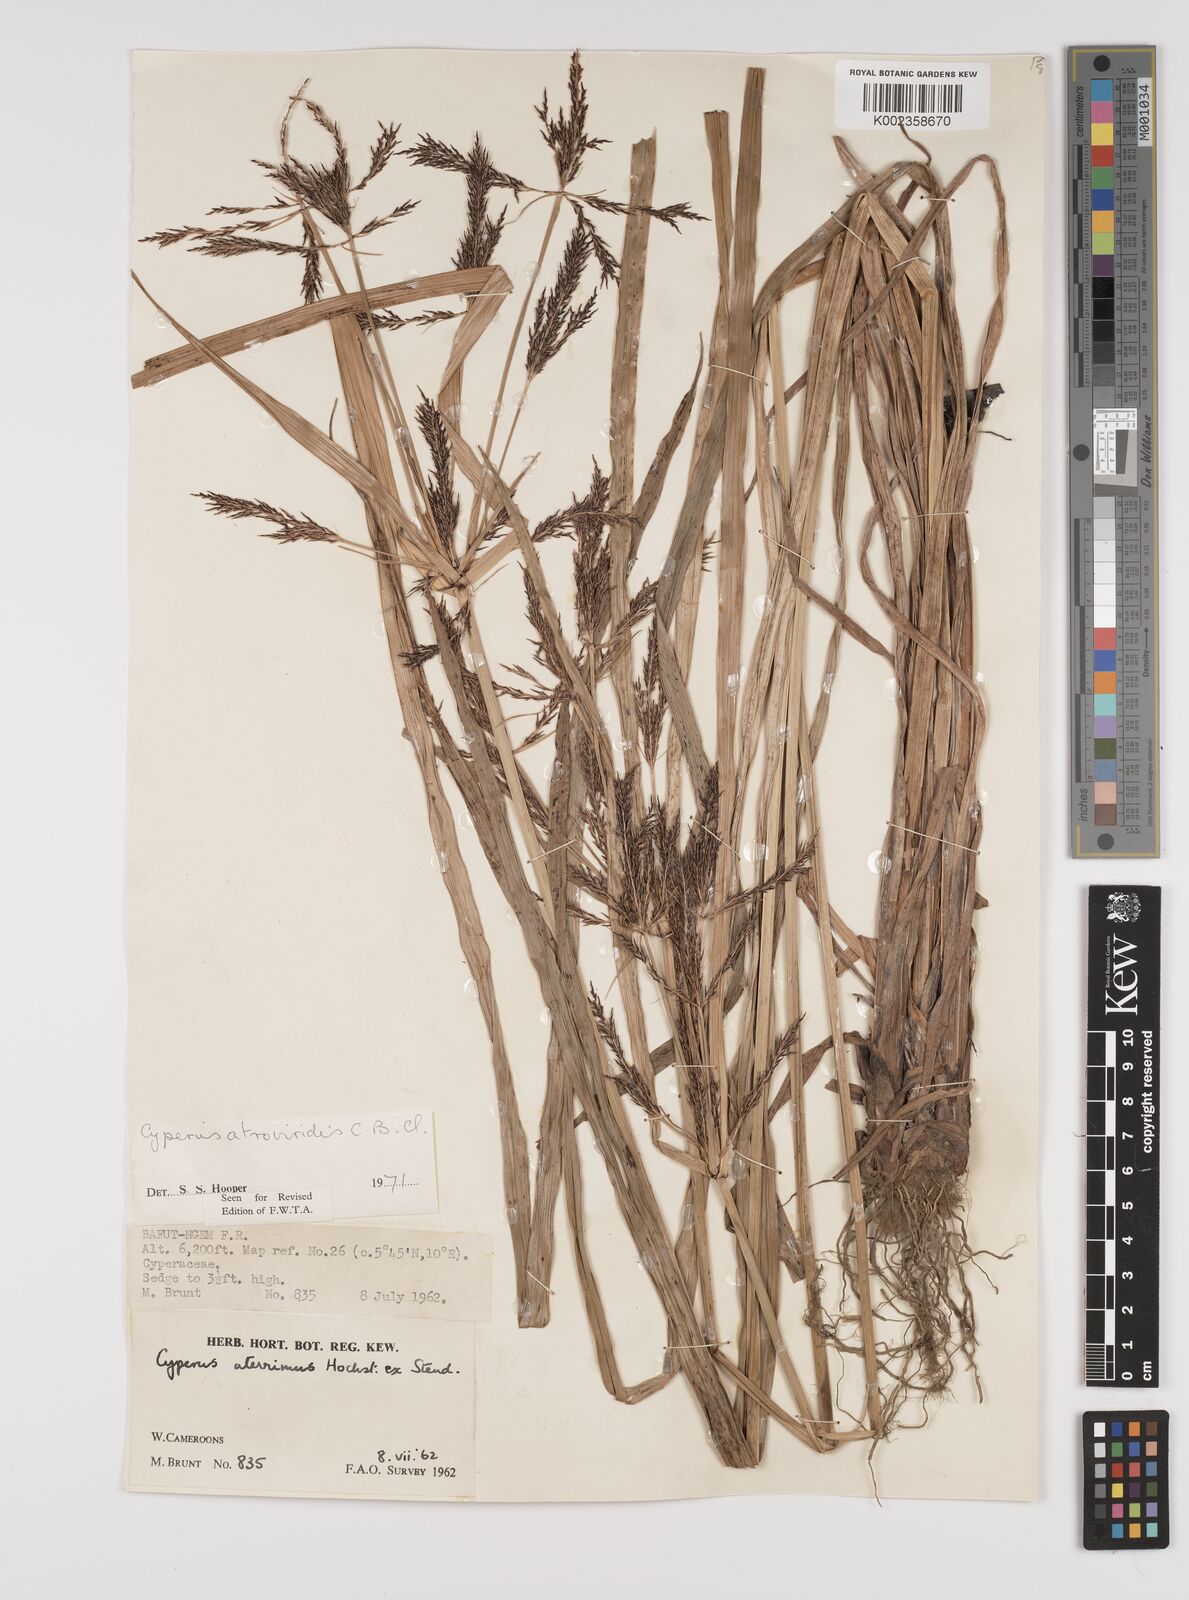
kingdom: Plantae
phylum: Tracheophyta
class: Liliopsida
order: Poales
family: Cyperaceae
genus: Cyperus
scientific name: Cyperus aterrimus
